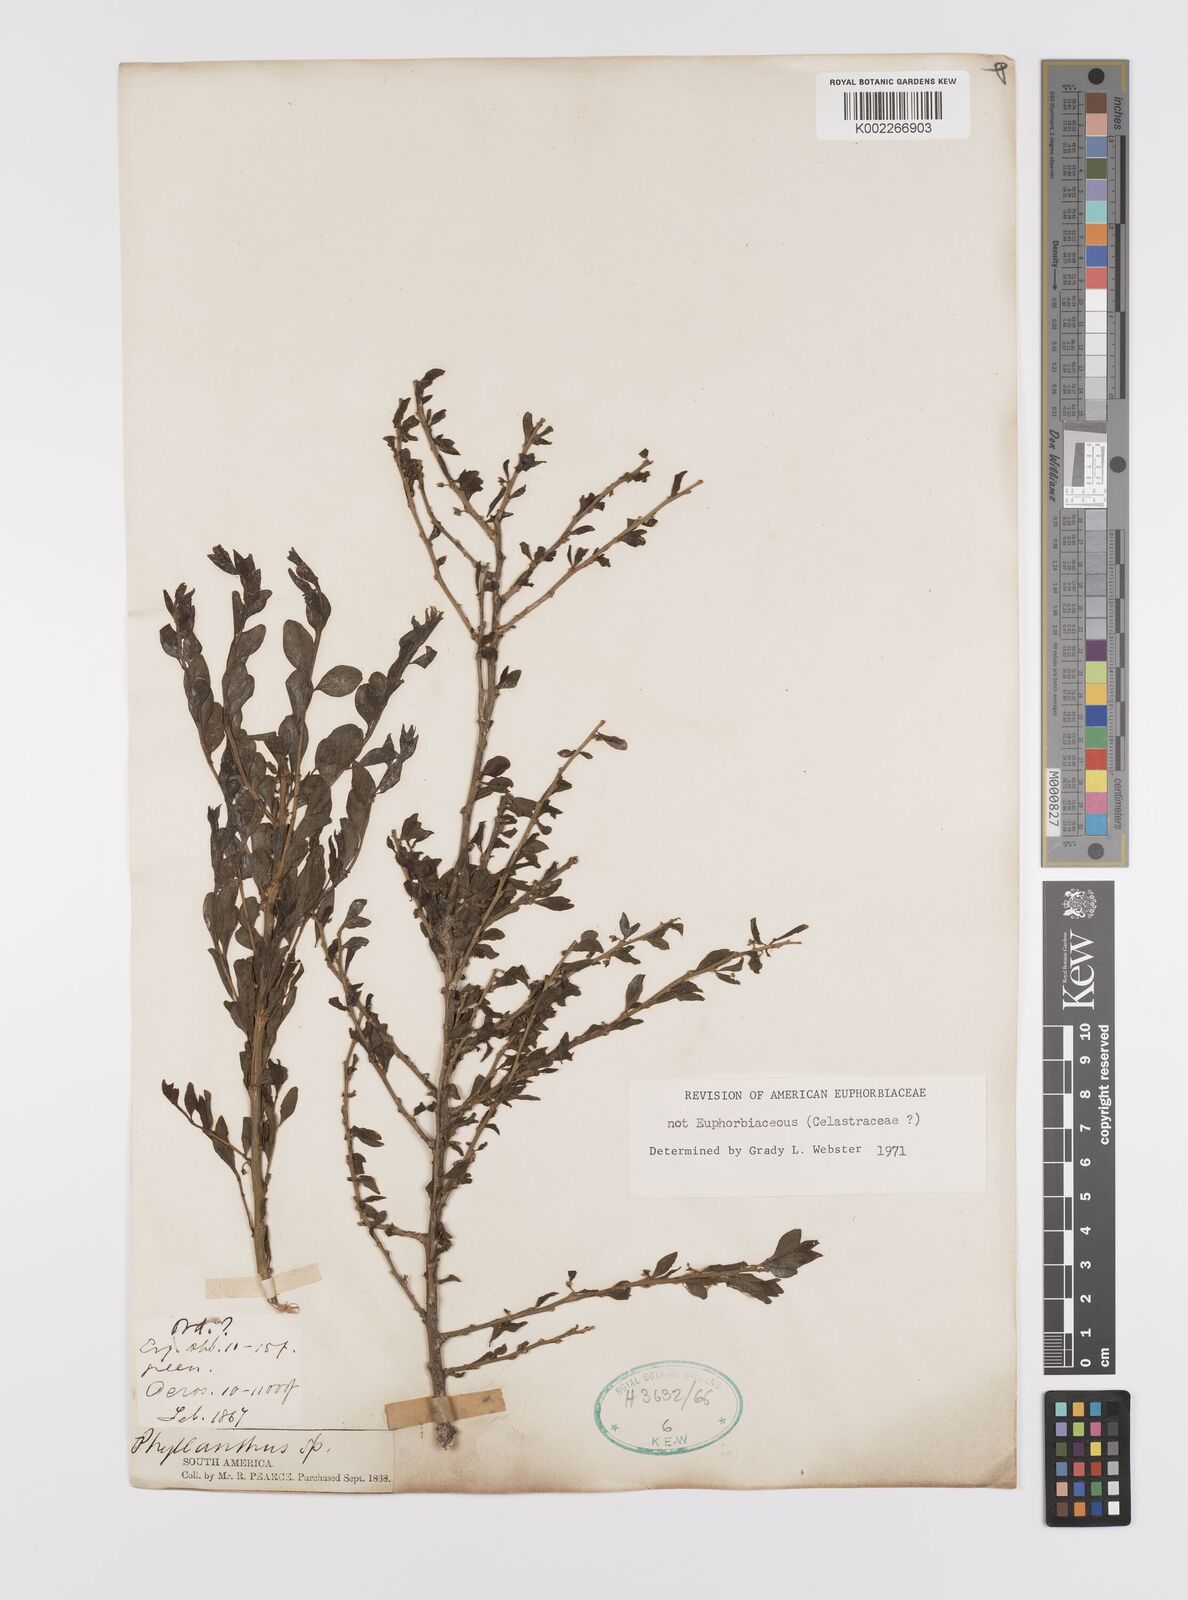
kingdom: Plantae
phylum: Tracheophyta
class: Magnoliopsida
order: Celastrales
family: Celastraceae
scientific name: Celastraceae
